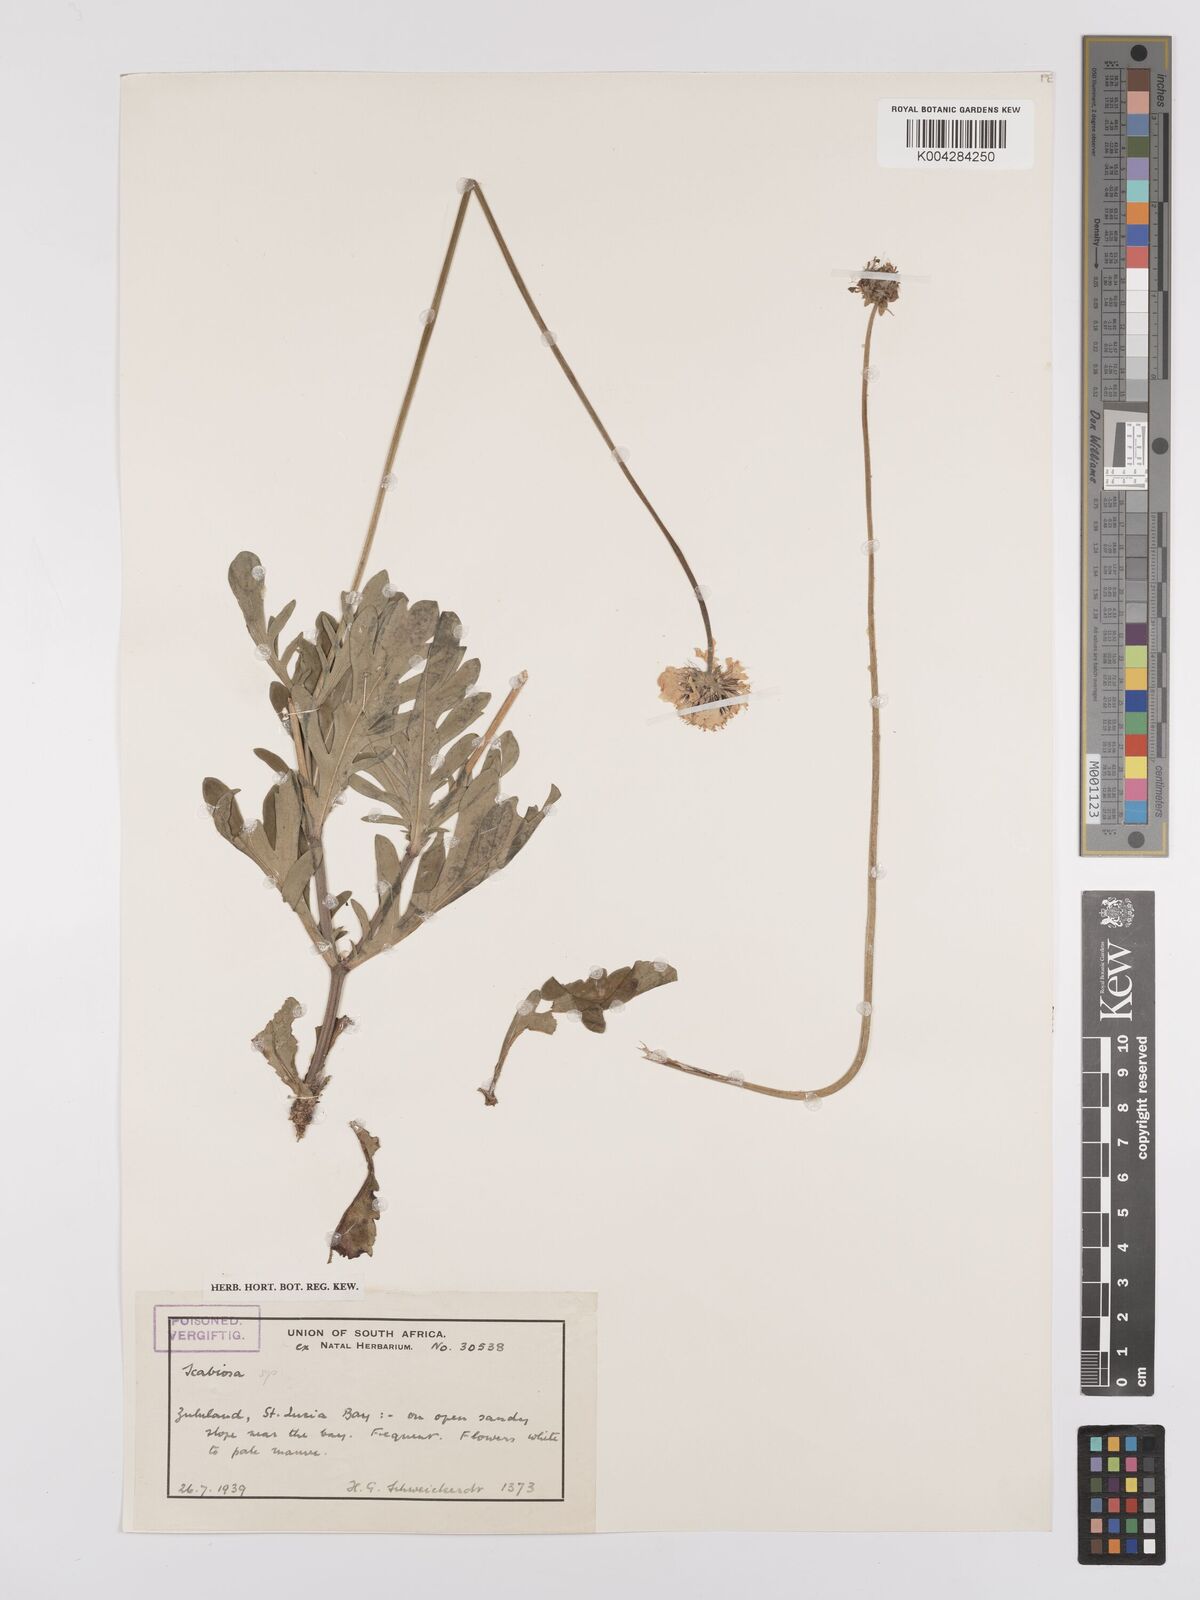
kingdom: Plantae
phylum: Tracheophyta
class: Magnoliopsida
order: Dipsacales
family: Caprifoliaceae
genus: Scabiosa
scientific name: Scabiosa columbaria
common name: Small scabious
